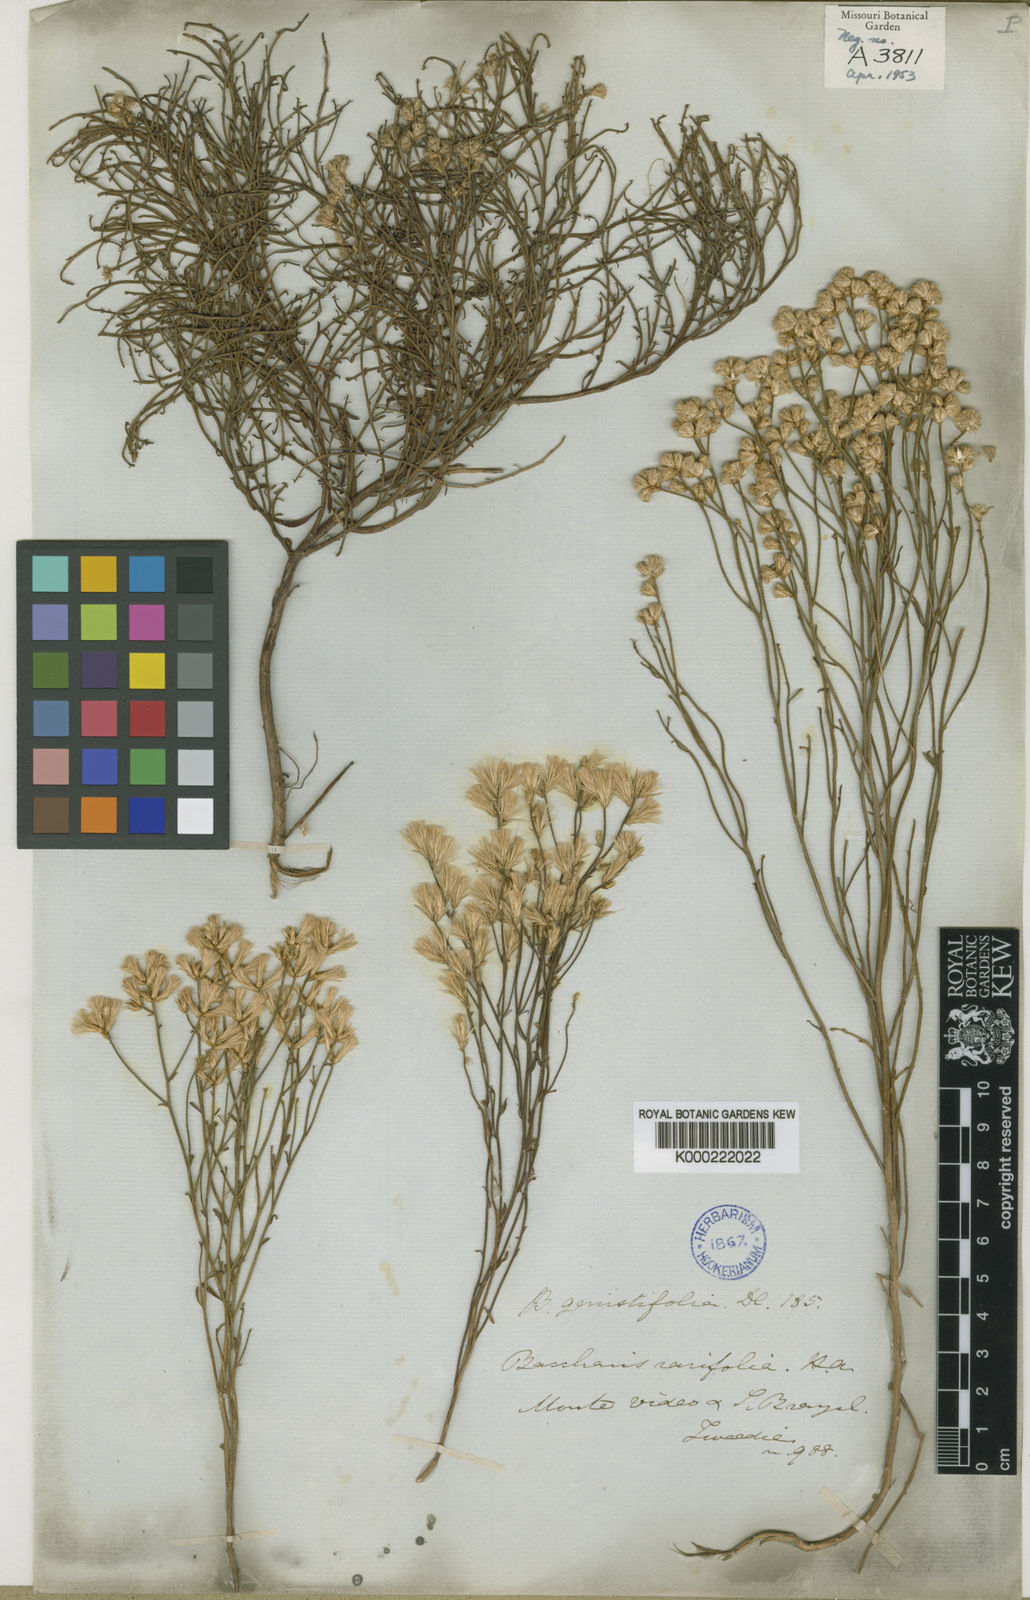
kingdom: Plantae
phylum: Tracheophyta
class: Magnoliopsida
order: Asterales
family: Asteraceae
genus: Baccharis
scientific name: Baccharis genistifolia
